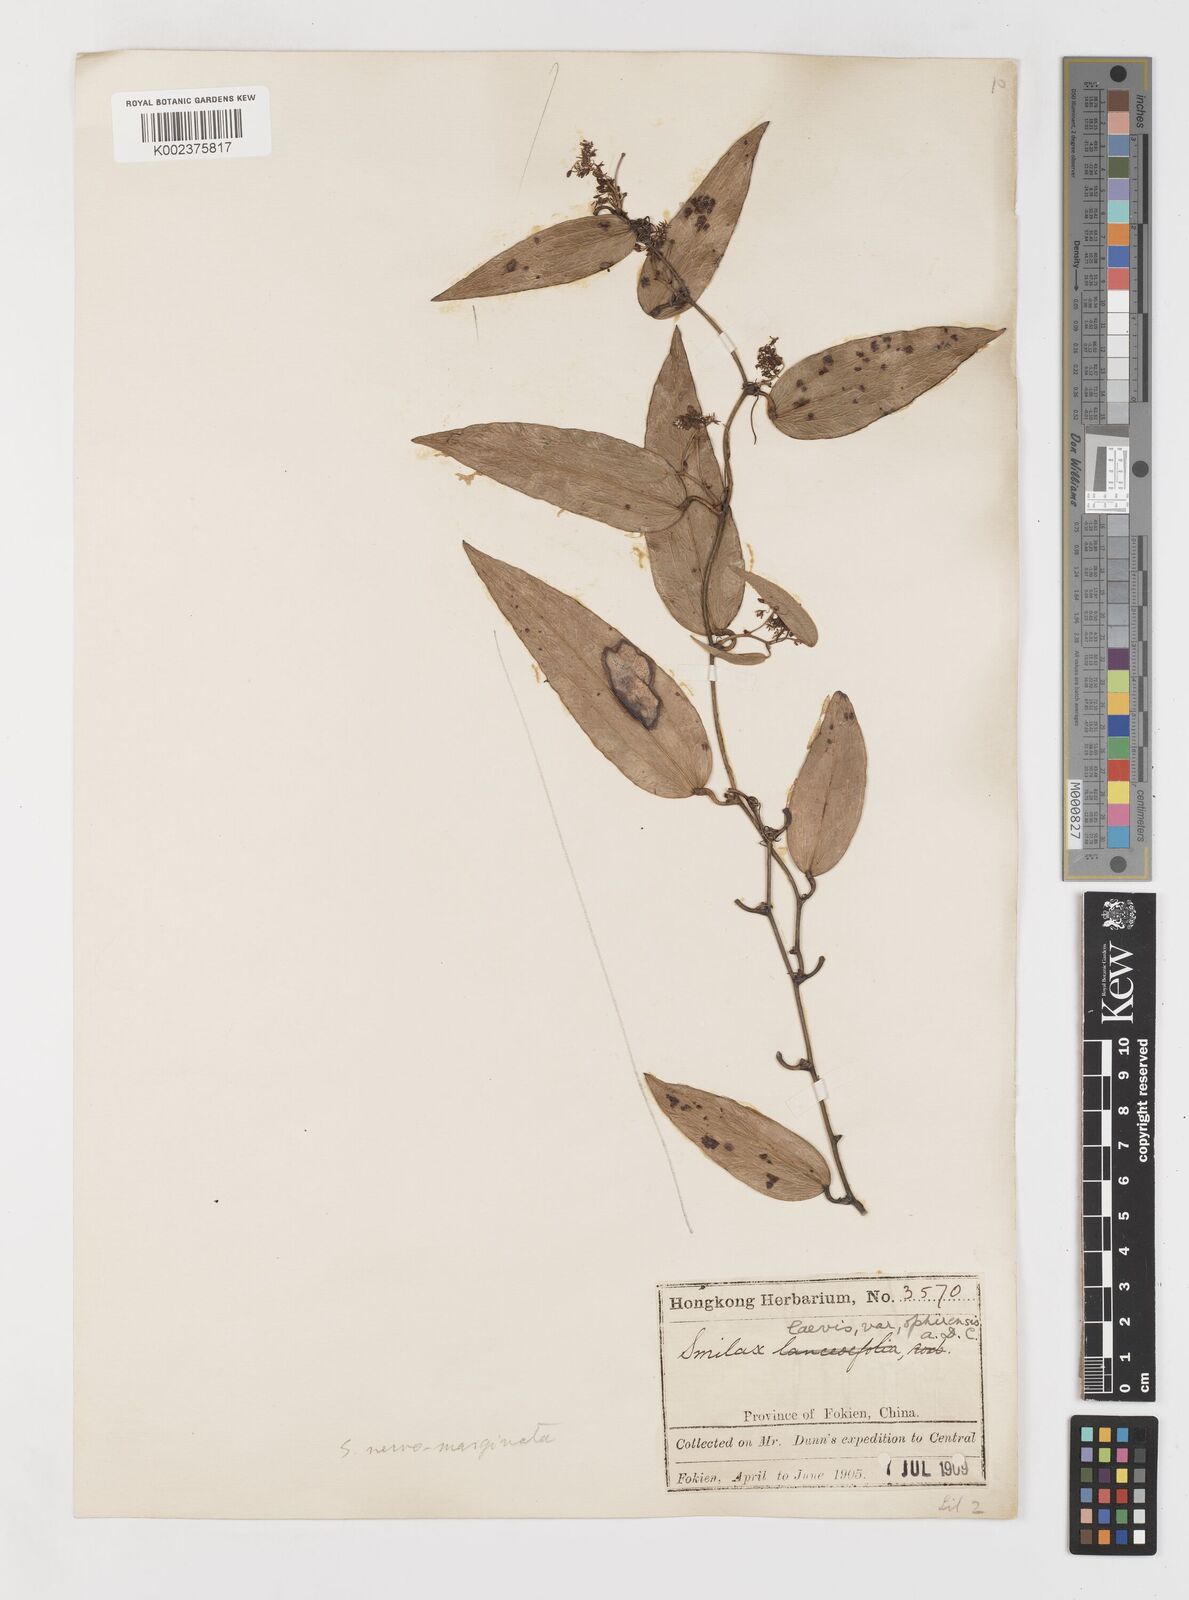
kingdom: Plantae
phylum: Tracheophyta
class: Liliopsida
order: Liliales
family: Smilacaceae
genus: Smilax
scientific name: Smilax
